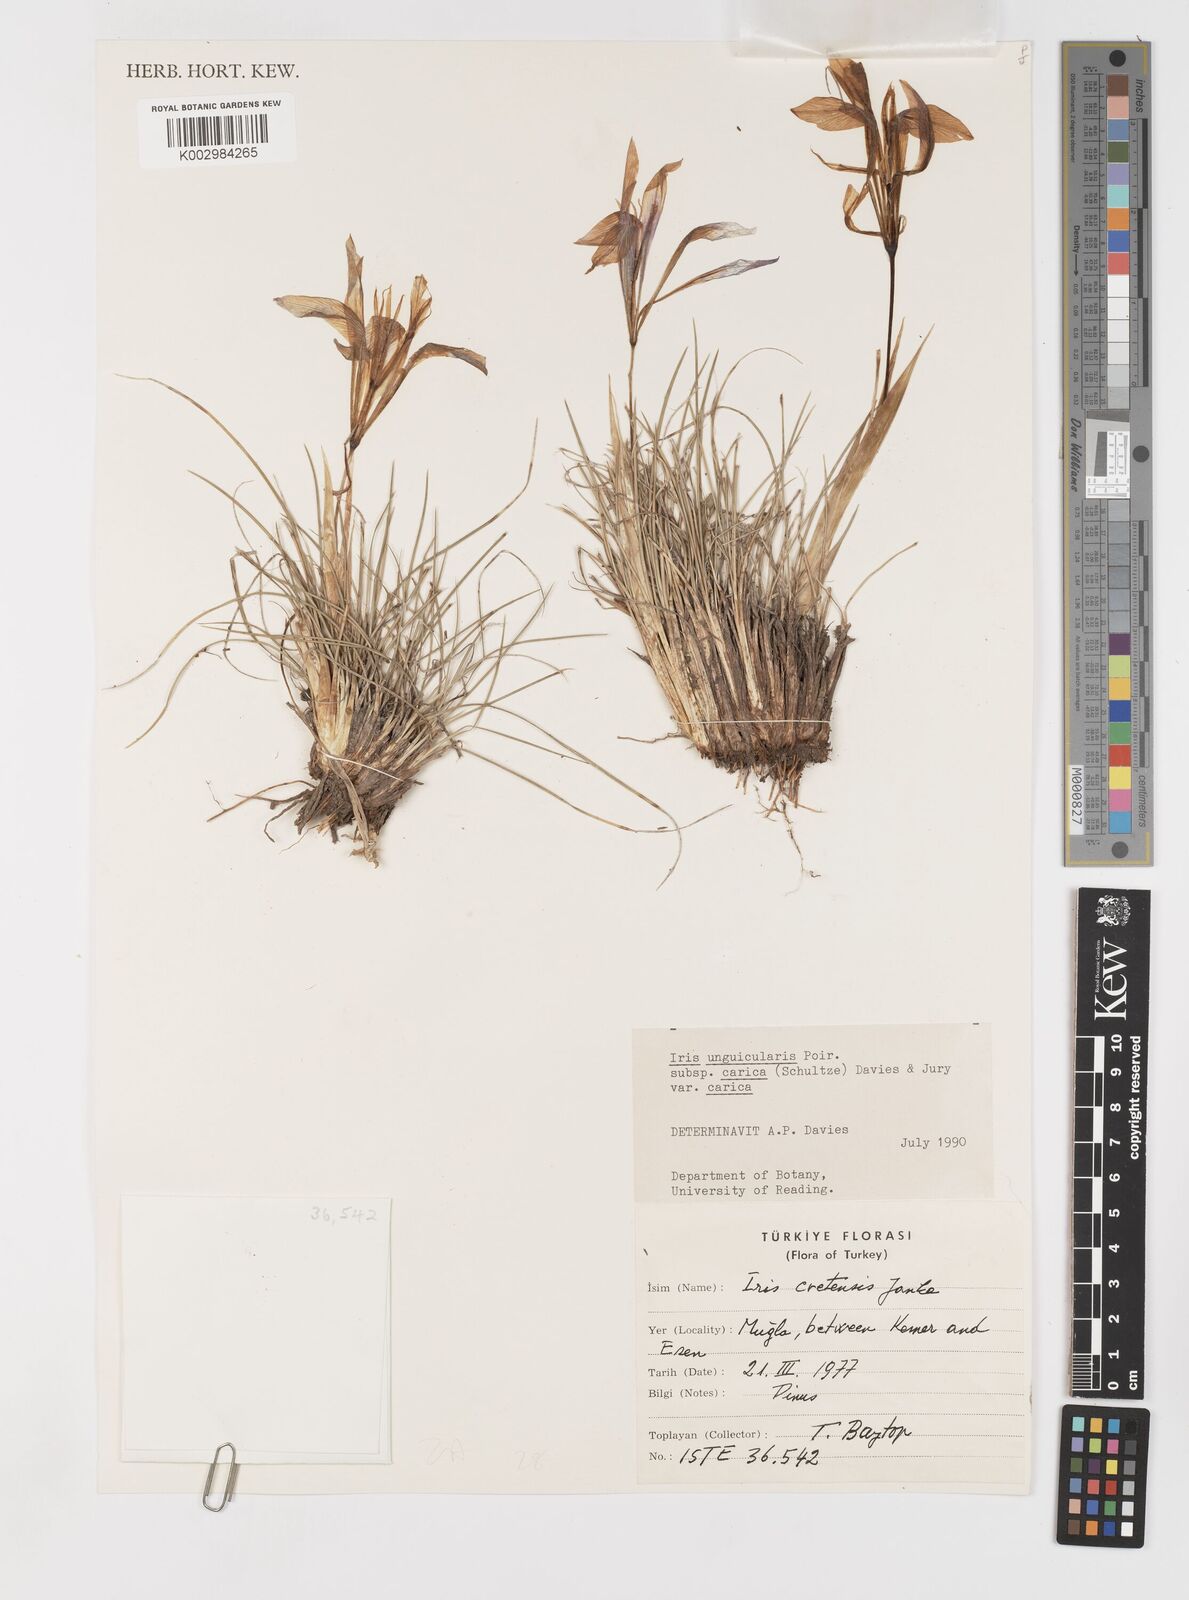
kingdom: Plantae
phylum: Tracheophyta
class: Liliopsida
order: Asparagales
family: Iridaceae
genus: Iris
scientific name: Iris unguicularis
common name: Algerian iris
